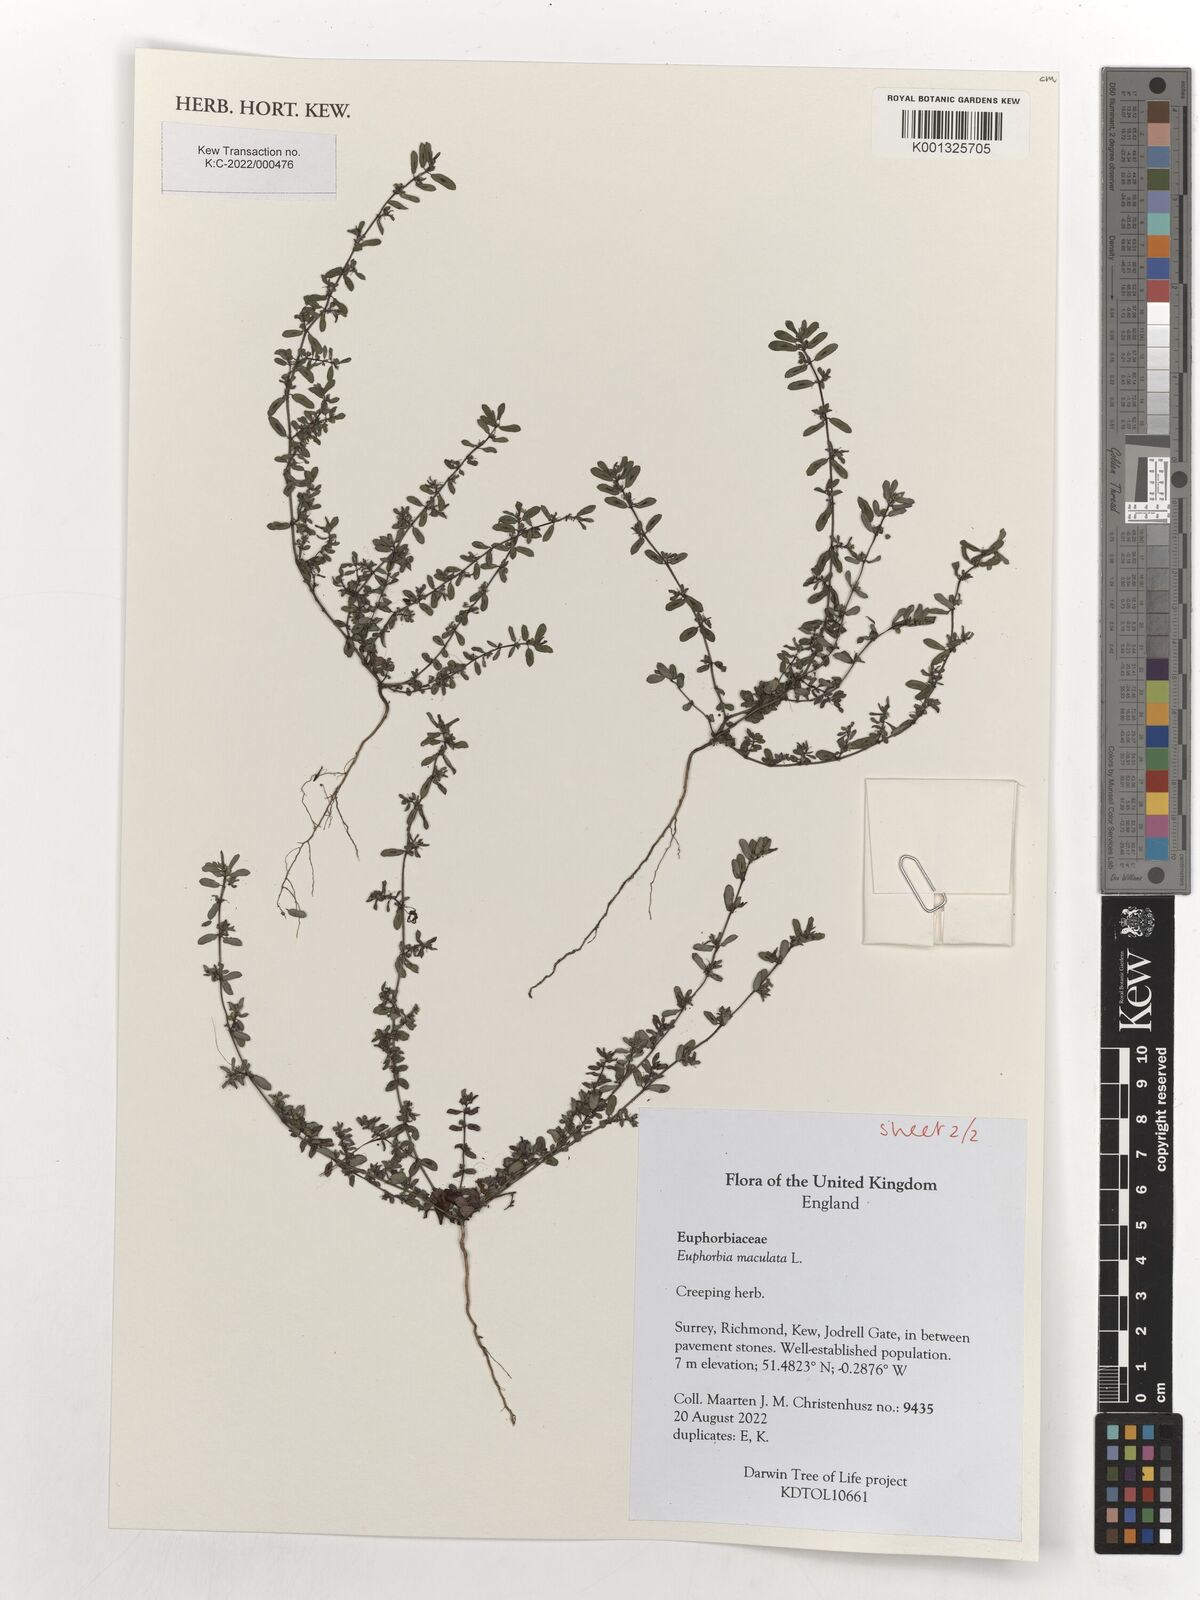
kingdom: Plantae
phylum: Tracheophyta
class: Magnoliopsida
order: Malpighiales
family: Euphorbiaceae
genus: Euphorbia
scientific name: Euphorbia maculata
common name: Spotted spurge
